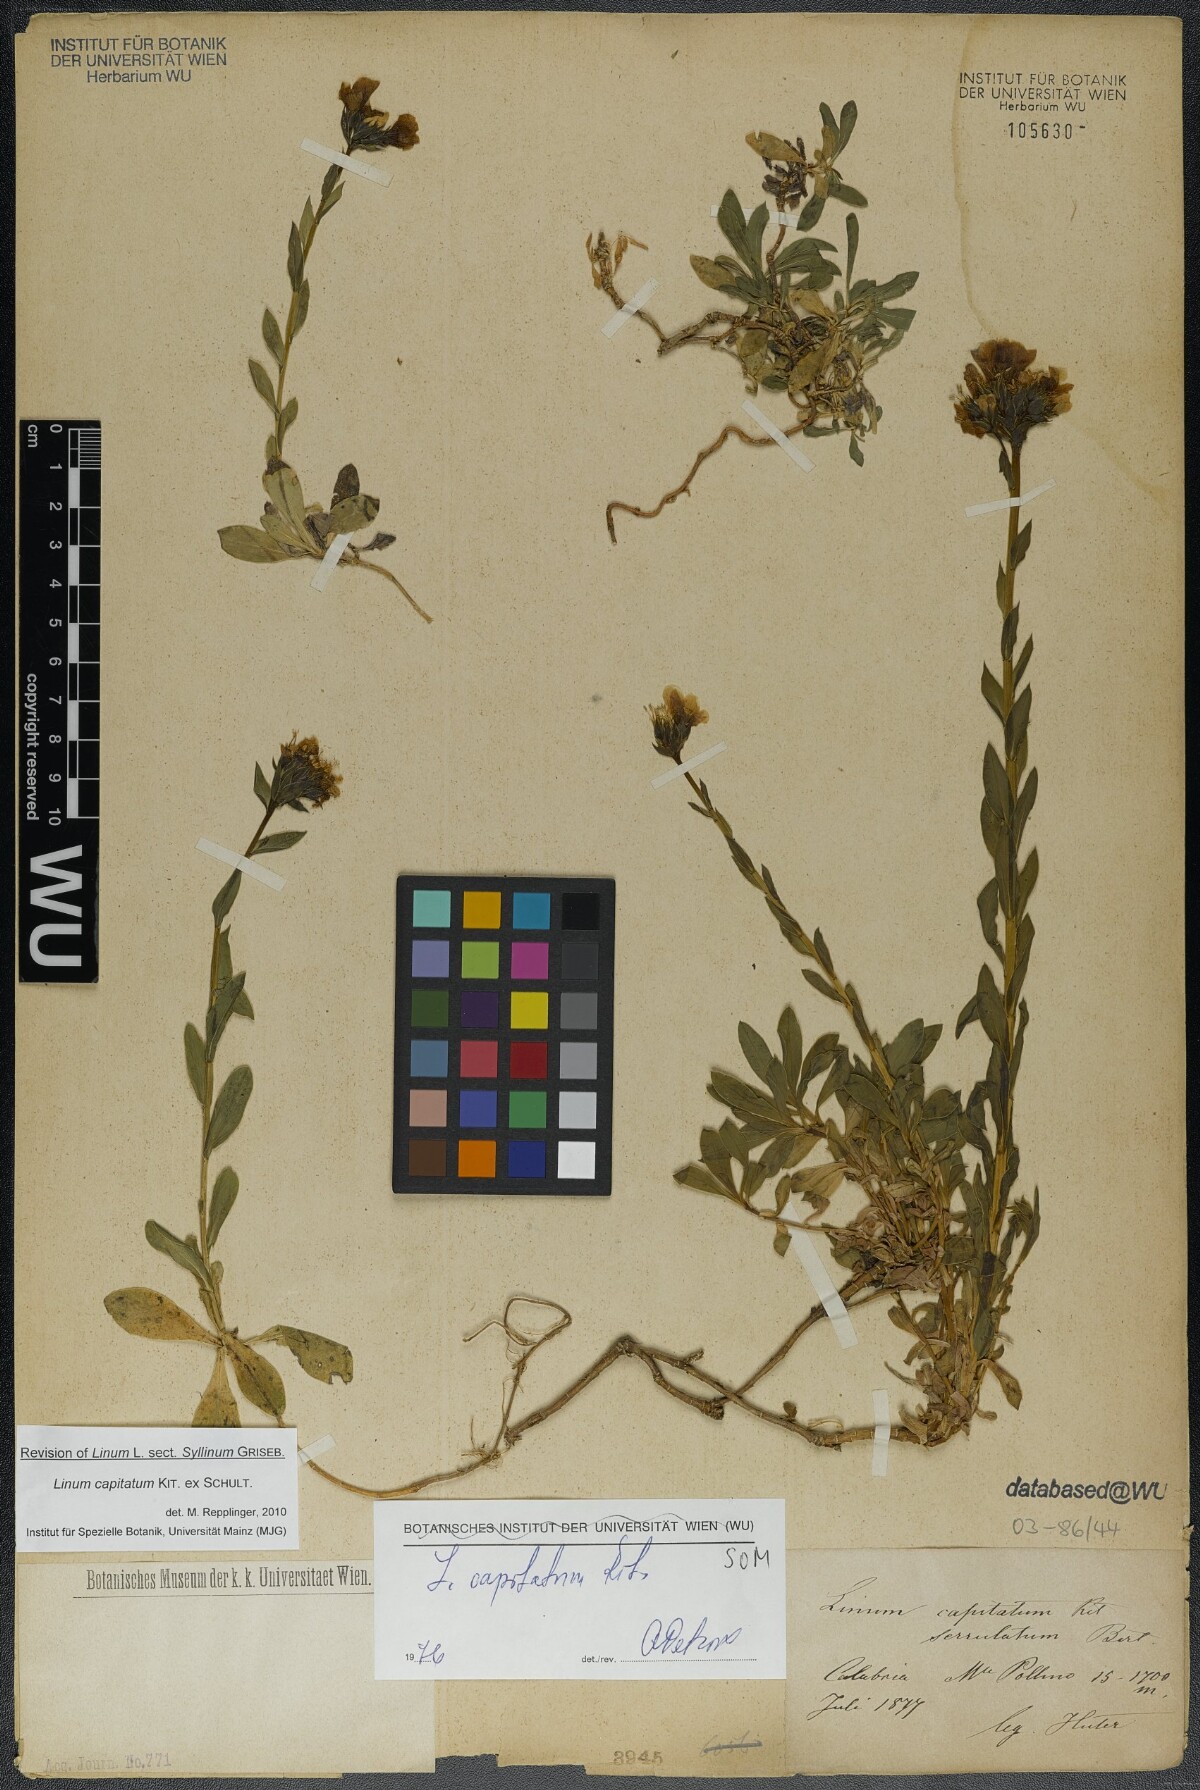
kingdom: Plantae
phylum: Tracheophyta
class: Magnoliopsida
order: Malpighiales
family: Linaceae
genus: Linum
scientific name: Linum capitatum
